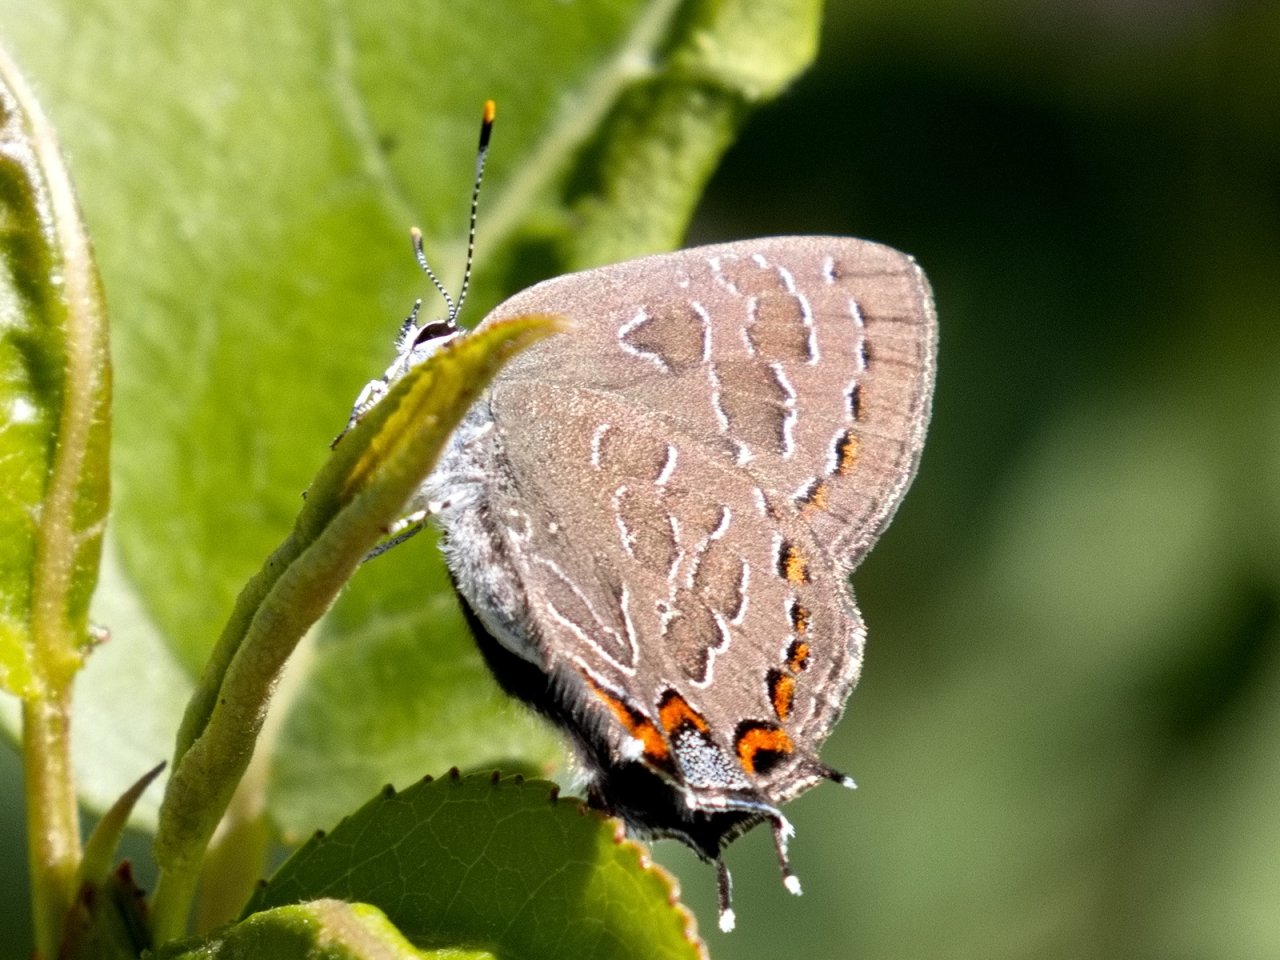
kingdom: Animalia
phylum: Arthropoda
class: Insecta
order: Lepidoptera
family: Lycaenidae
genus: Satyrium
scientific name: Satyrium liparops
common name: Striped Hairstreak
